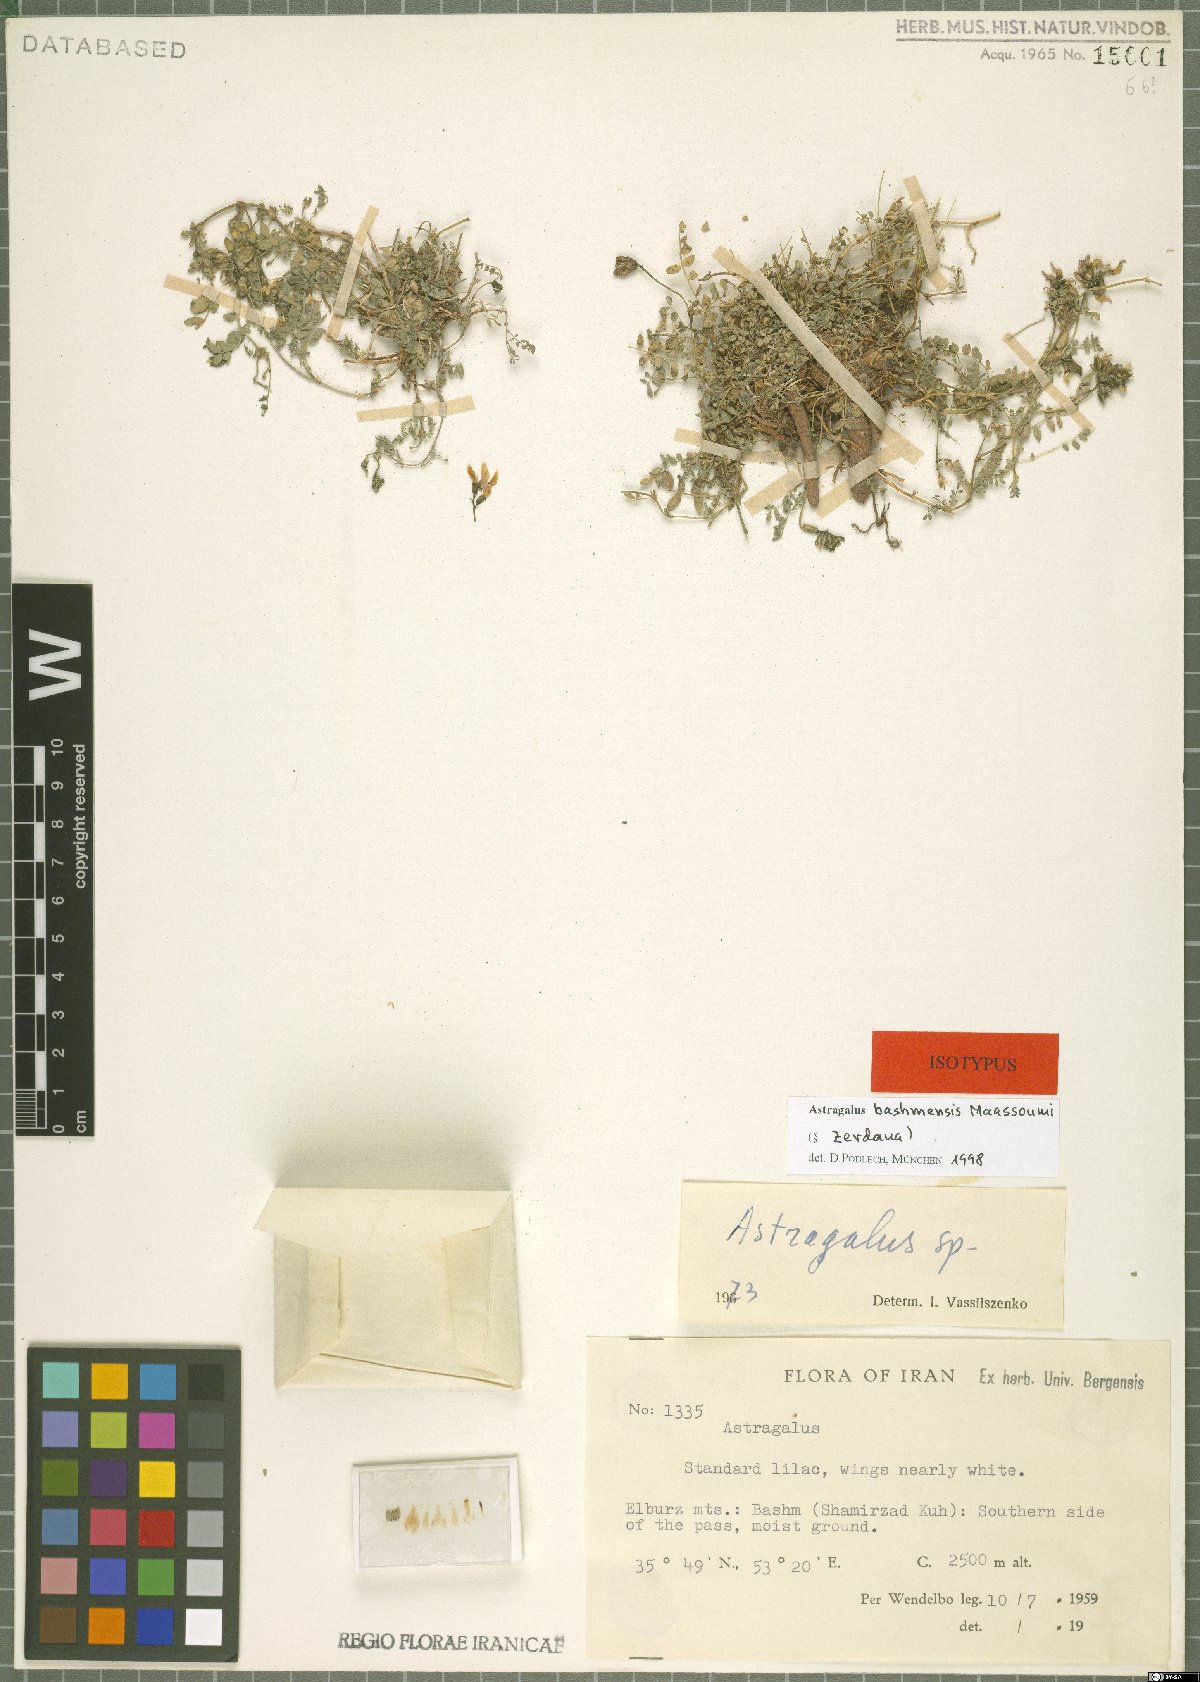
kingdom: Plantae
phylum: Tracheophyta
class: Magnoliopsida
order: Fabales
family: Fabaceae
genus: Astragalus
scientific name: Astragalus bashmensis
